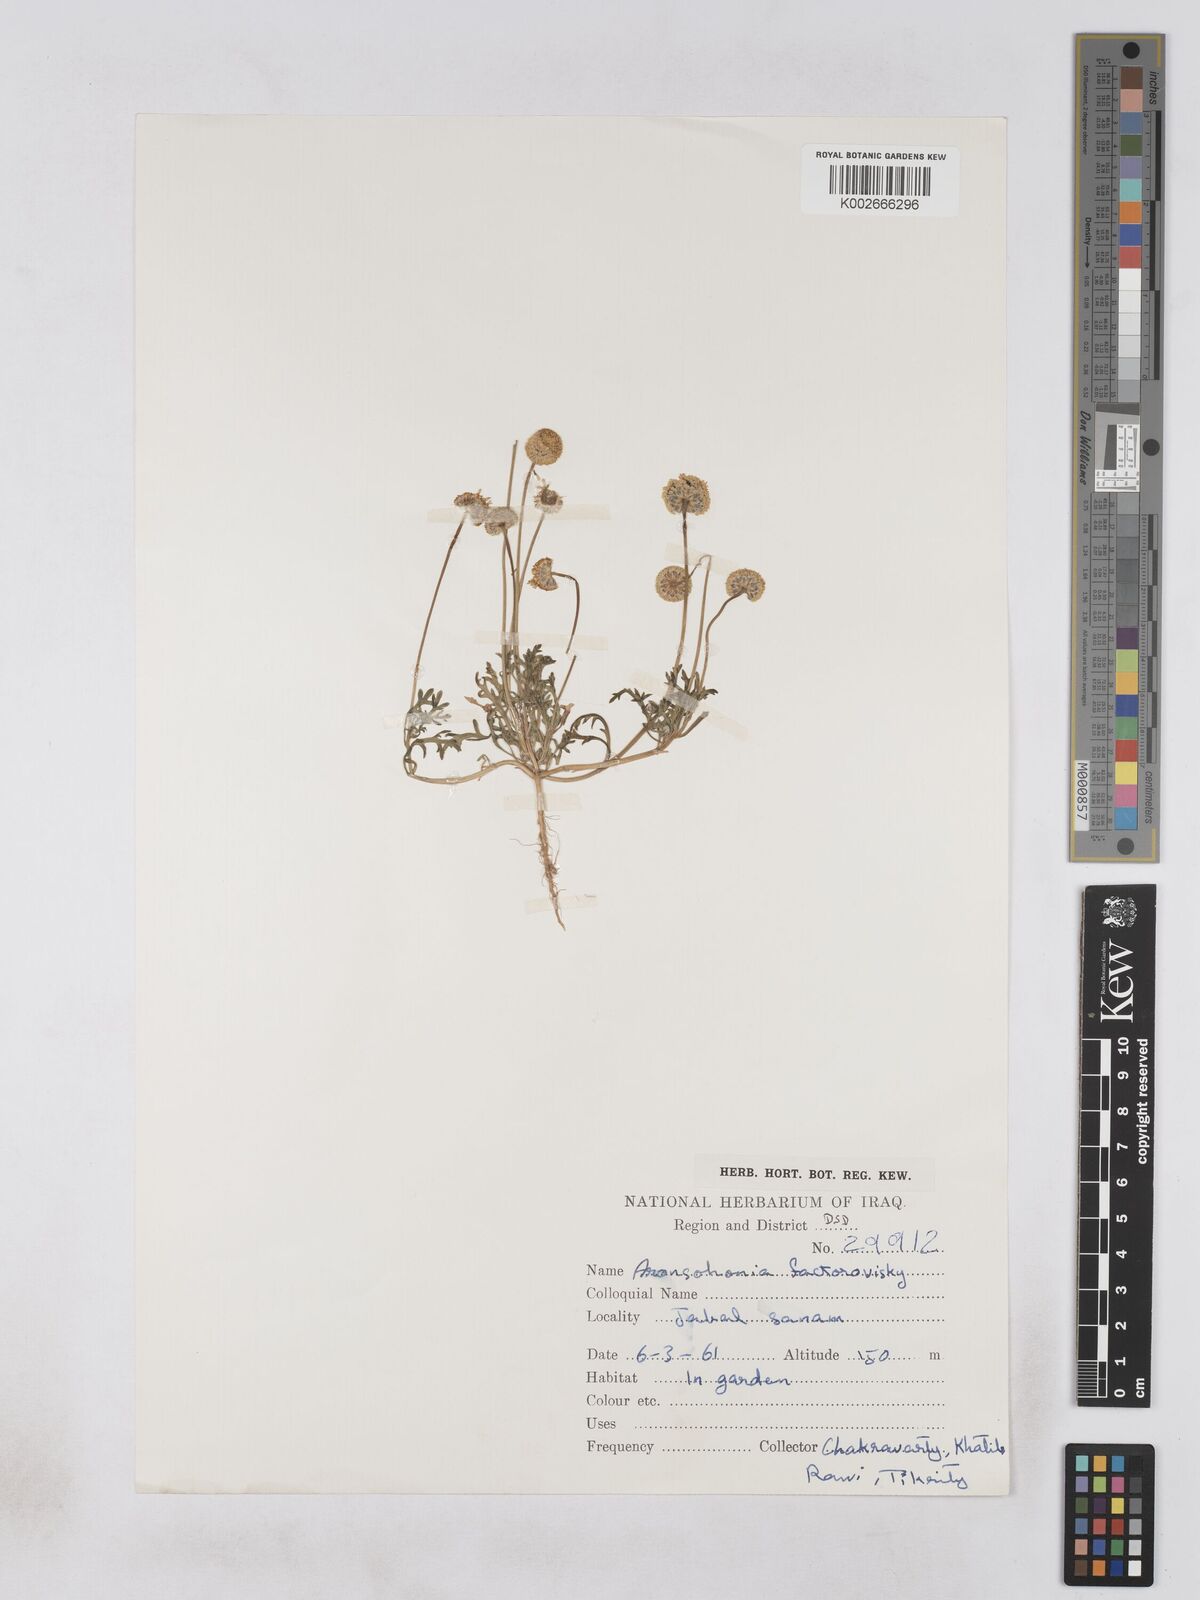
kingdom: Plantae
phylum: Tracheophyta
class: Magnoliopsida
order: Asterales
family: Asteraceae
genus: Otoglyphis
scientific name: Otoglyphis factorovskyi
